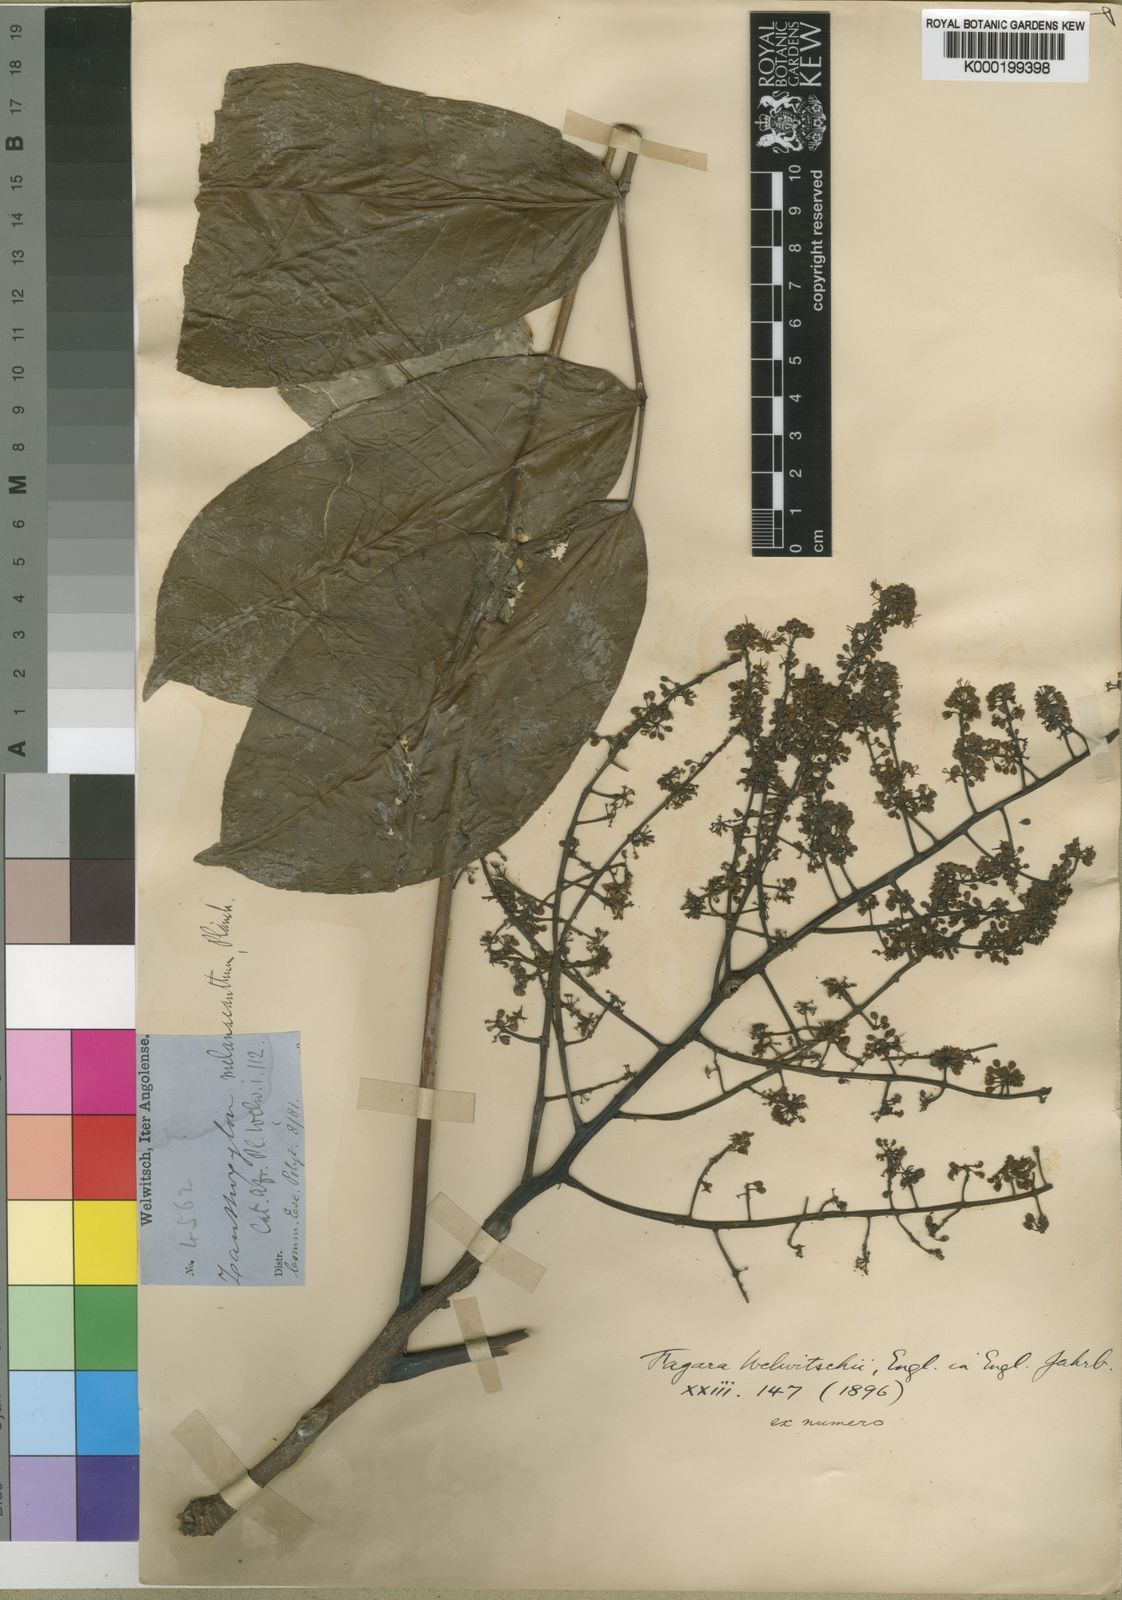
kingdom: Plantae
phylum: Tracheophyta
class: Magnoliopsida
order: Sapindales
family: Rutaceae
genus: Vepris
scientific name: Vepris grandifolia
